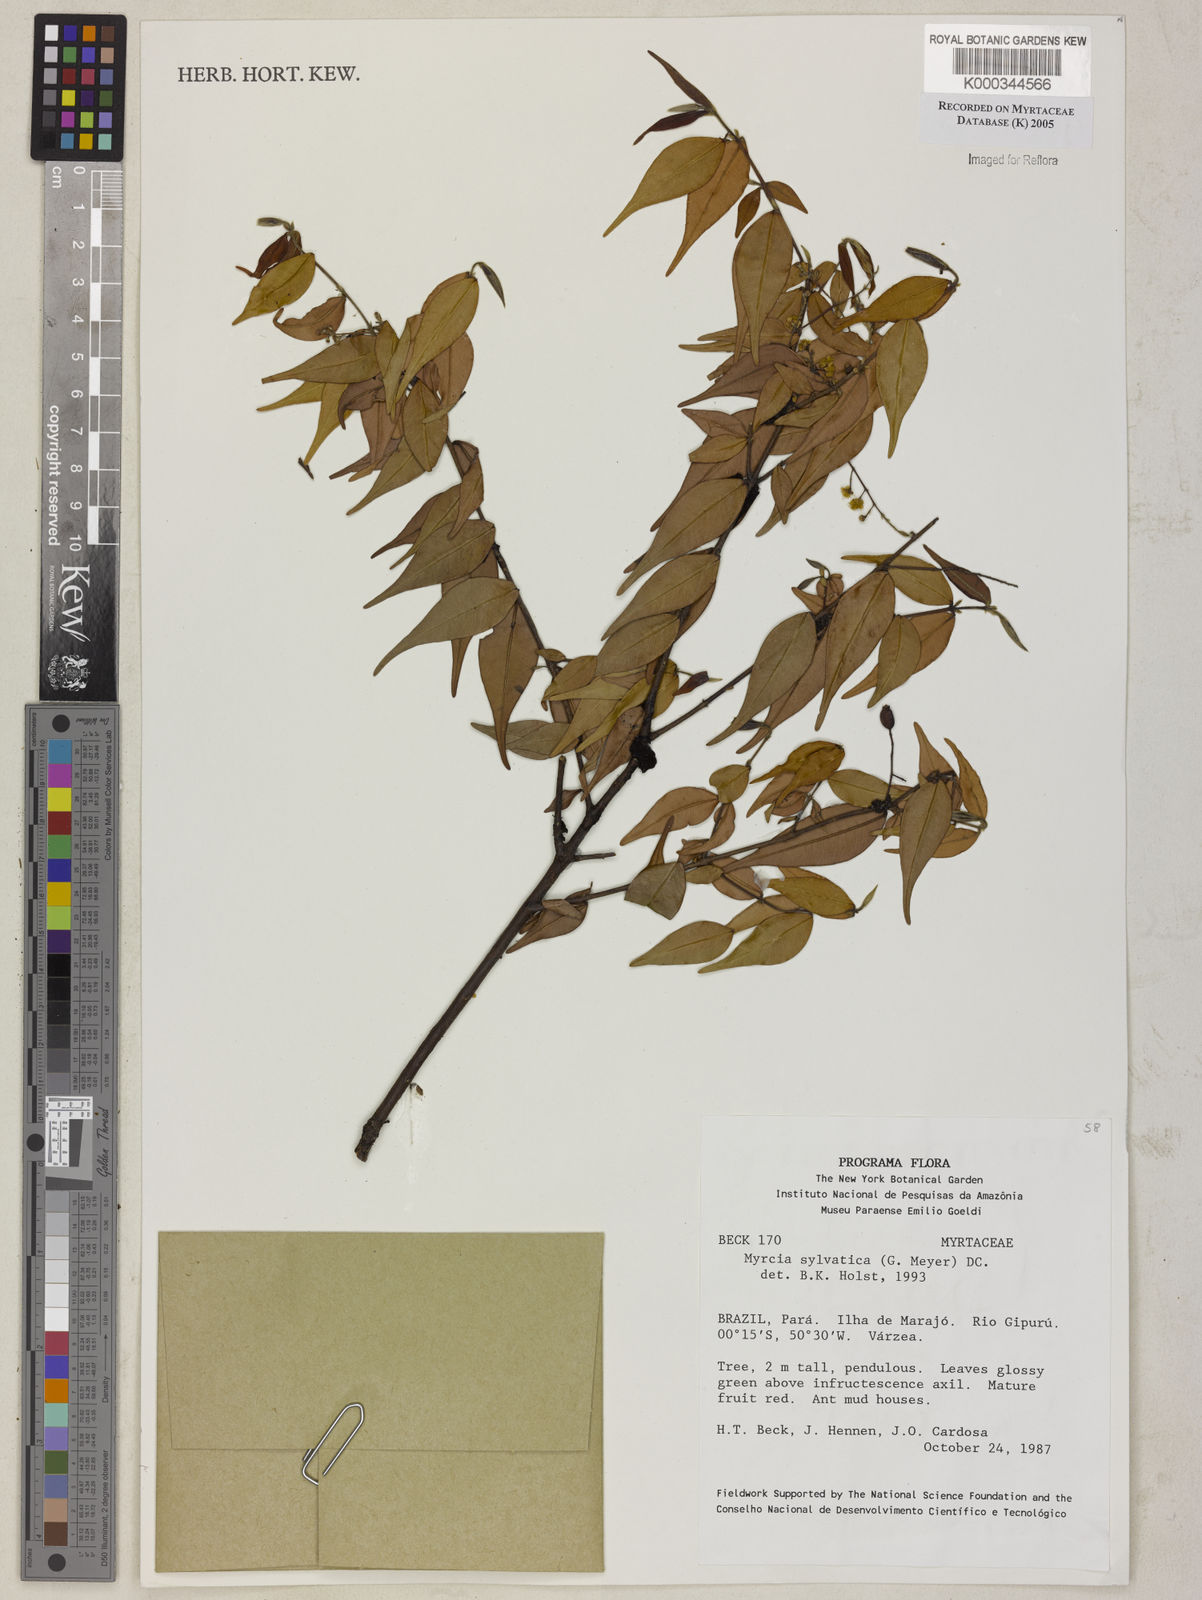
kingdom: Plantae
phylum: Tracheophyta
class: Magnoliopsida
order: Myrtales
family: Myrtaceae
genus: Myrcia
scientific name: Myrcia sylvatica
